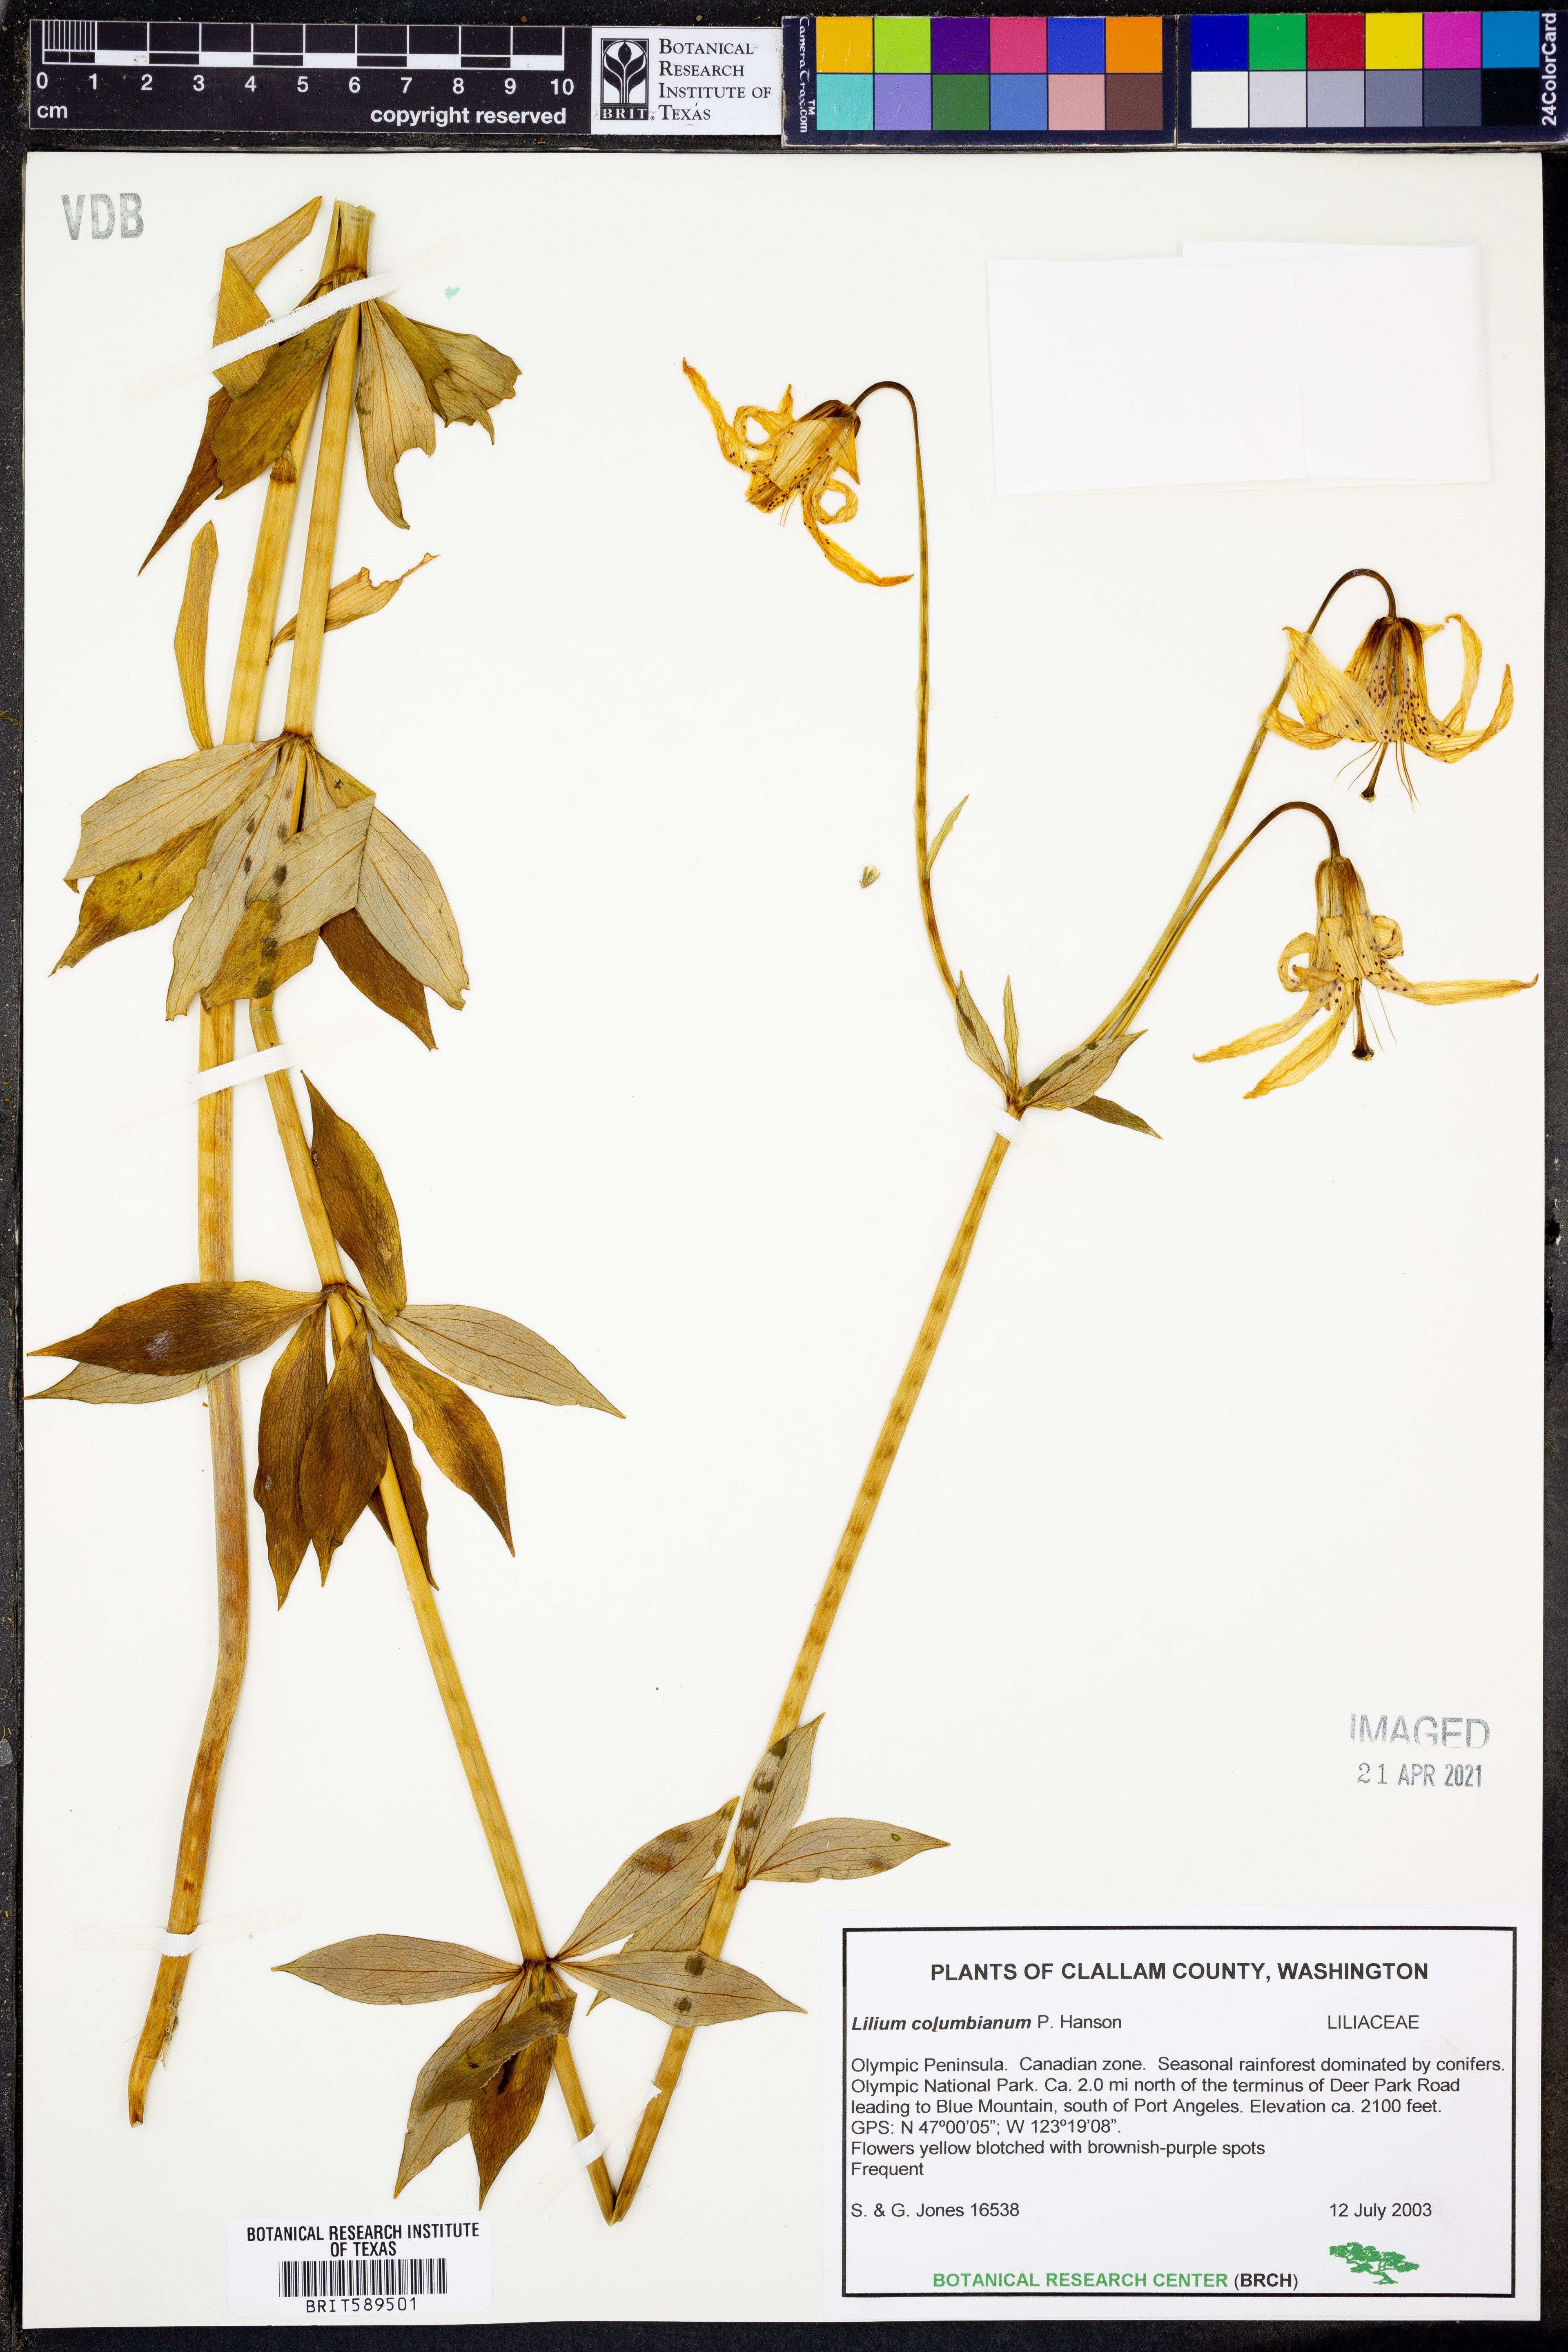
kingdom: Plantae
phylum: Tracheophyta
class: Liliopsida
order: Liliales
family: Liliaceae
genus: Lilium
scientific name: Lilium columbianum
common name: Columbia lily
